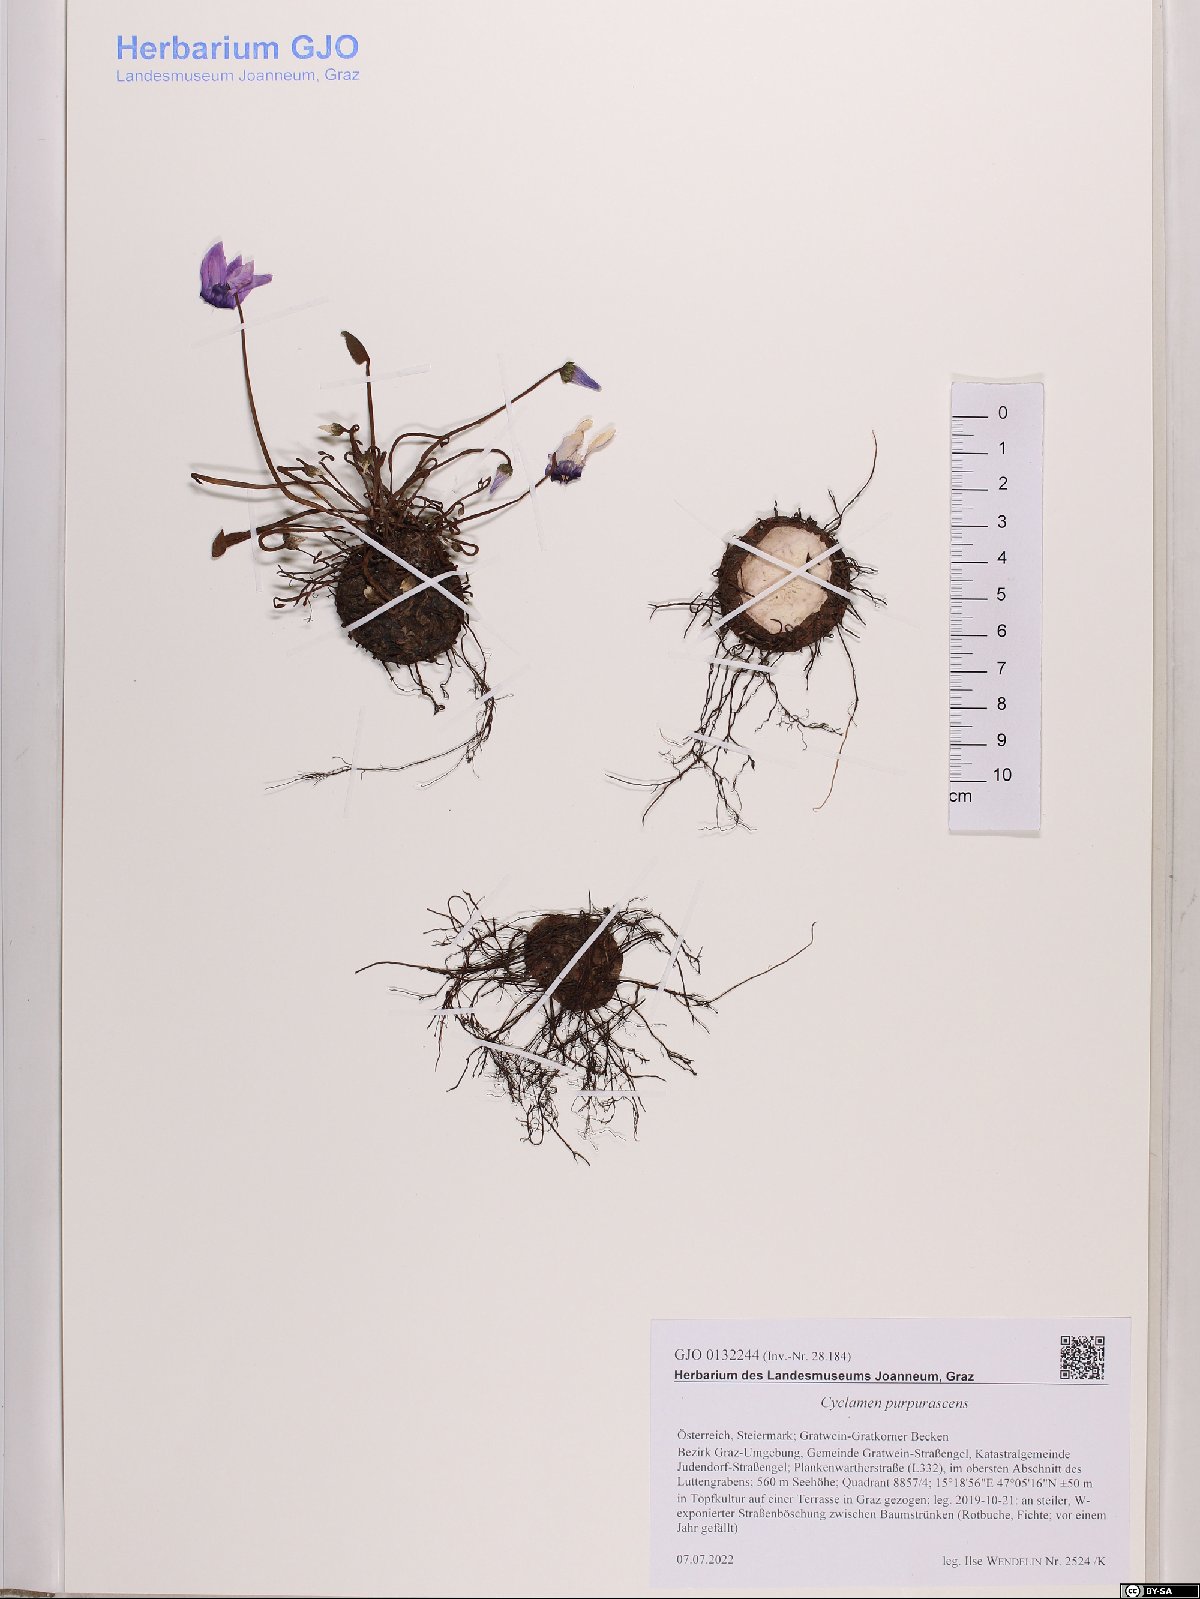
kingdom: Plantae
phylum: Tracheophyta
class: Magnoliopsida
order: Ericales
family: Primulaceae
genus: Cyclamen
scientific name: Cyclamen purpurascens
